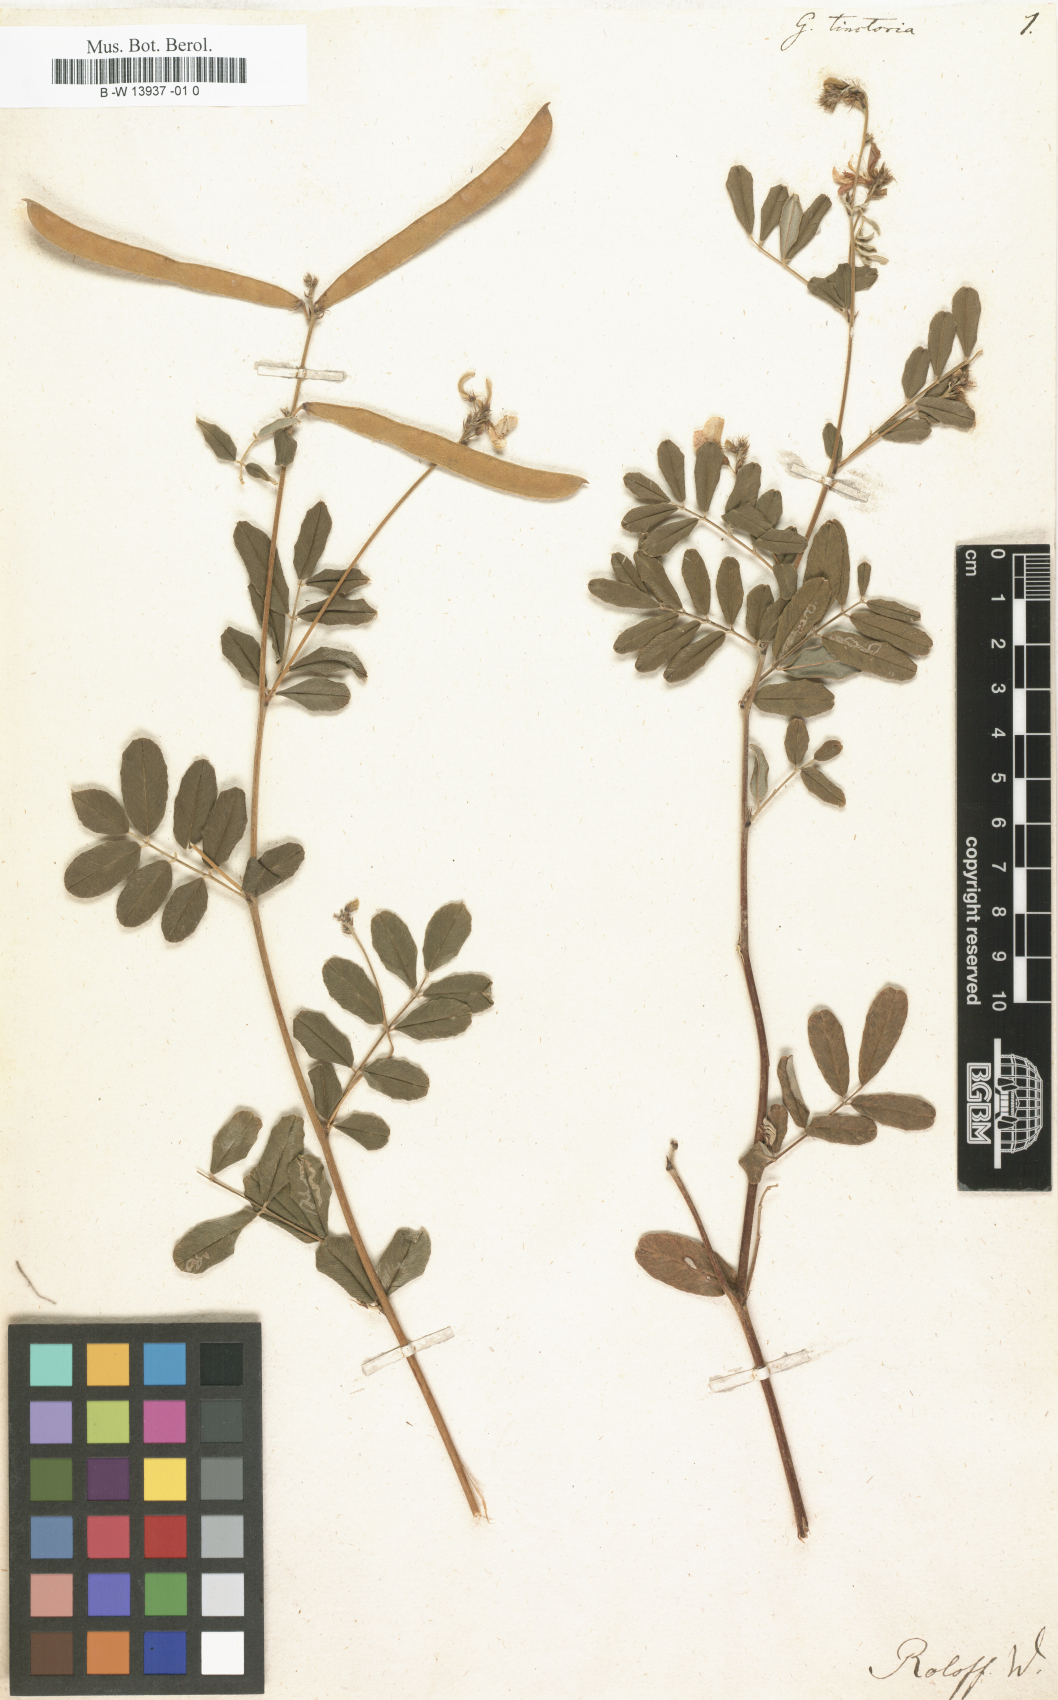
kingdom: Plantae
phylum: Tracheophyta
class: Magnoliopsida
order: Fabales
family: Fabaceae
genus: Tephrosia
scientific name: Tephrosia purpurea
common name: Fishpoison
